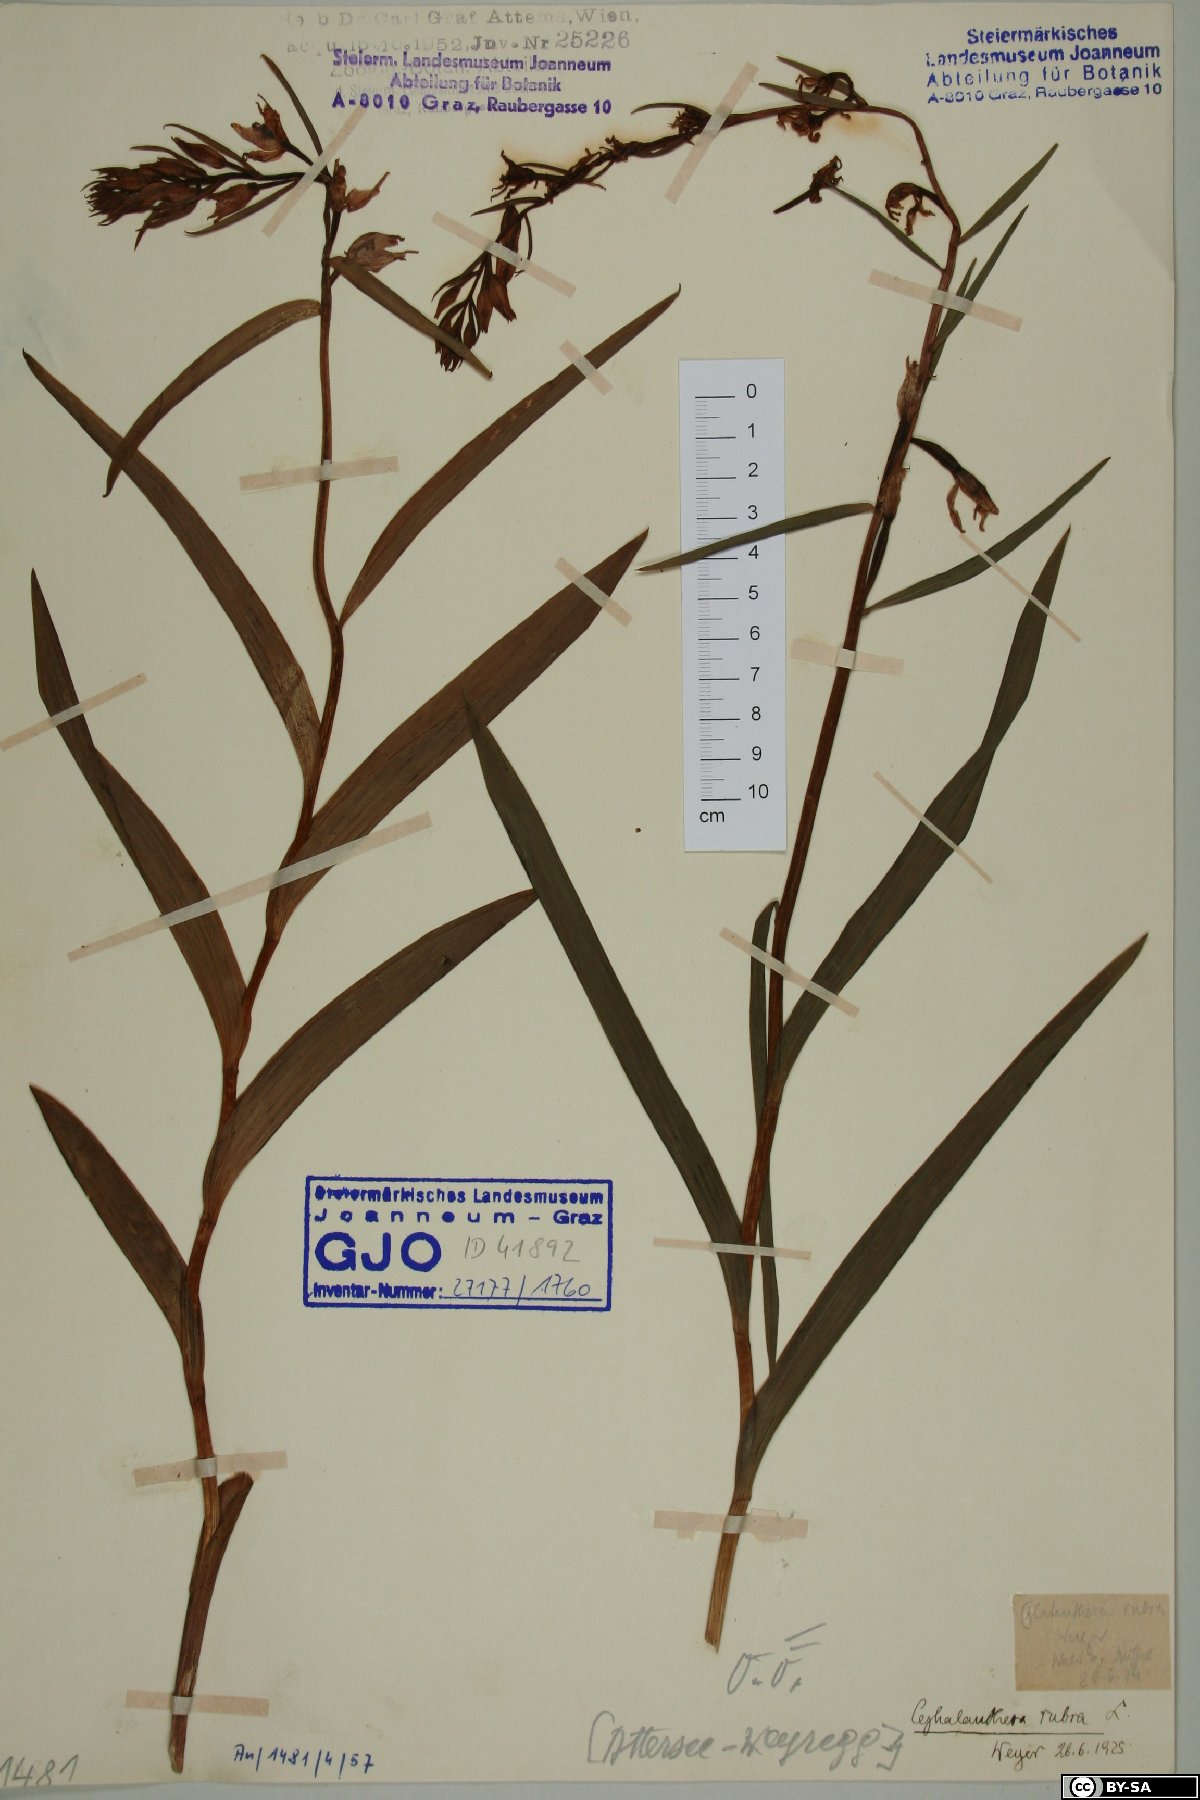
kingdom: Plantae
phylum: Tracheophyta
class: Liliopsida
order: Asparagales
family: Orchidaceae
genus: Cephalanthera
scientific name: Cephalanthera rubra
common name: Red helleborine
